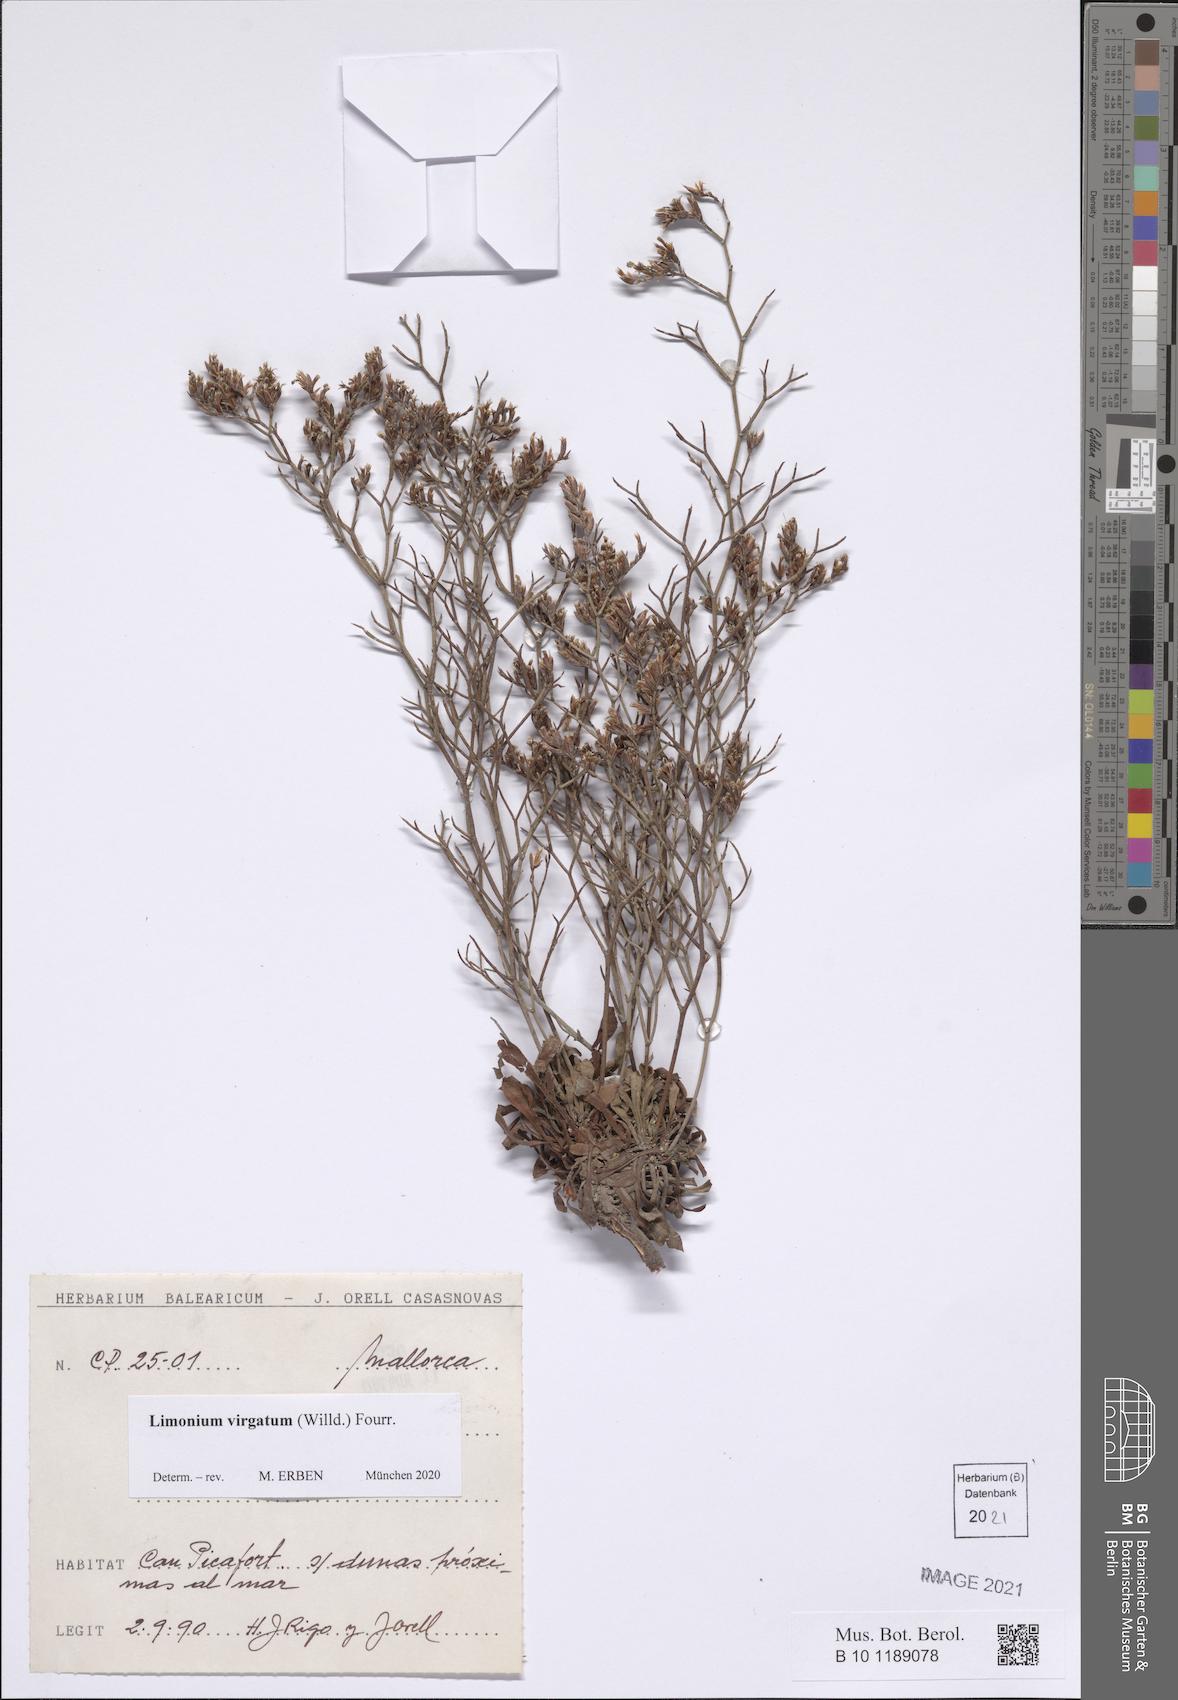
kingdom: Plantae
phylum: Tracheophyta
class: Magnoliopsida
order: Caryophyllales
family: Plumbaginaceae
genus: Limonium
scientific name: Limonium virgatum
